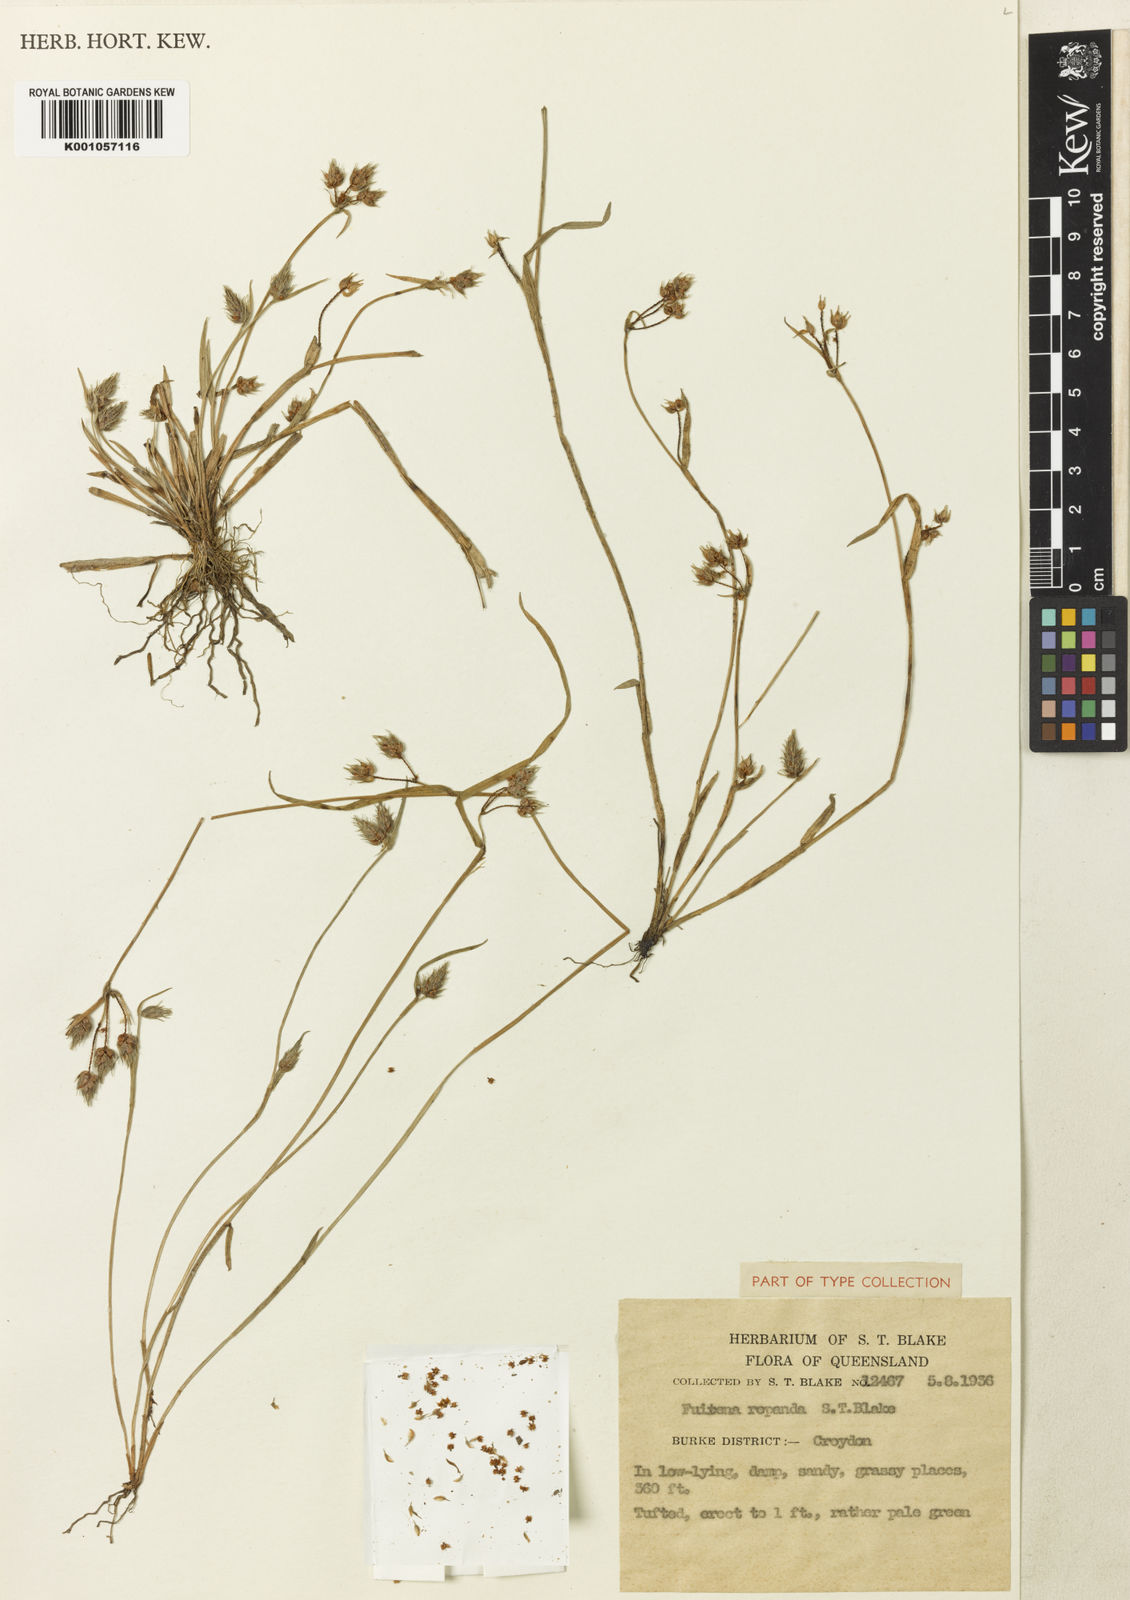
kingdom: Plantae
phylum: Tracheophyta
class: Liliopsida
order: Poales
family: Cyperaceae
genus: Fuirena
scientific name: Fuirena arenosa
